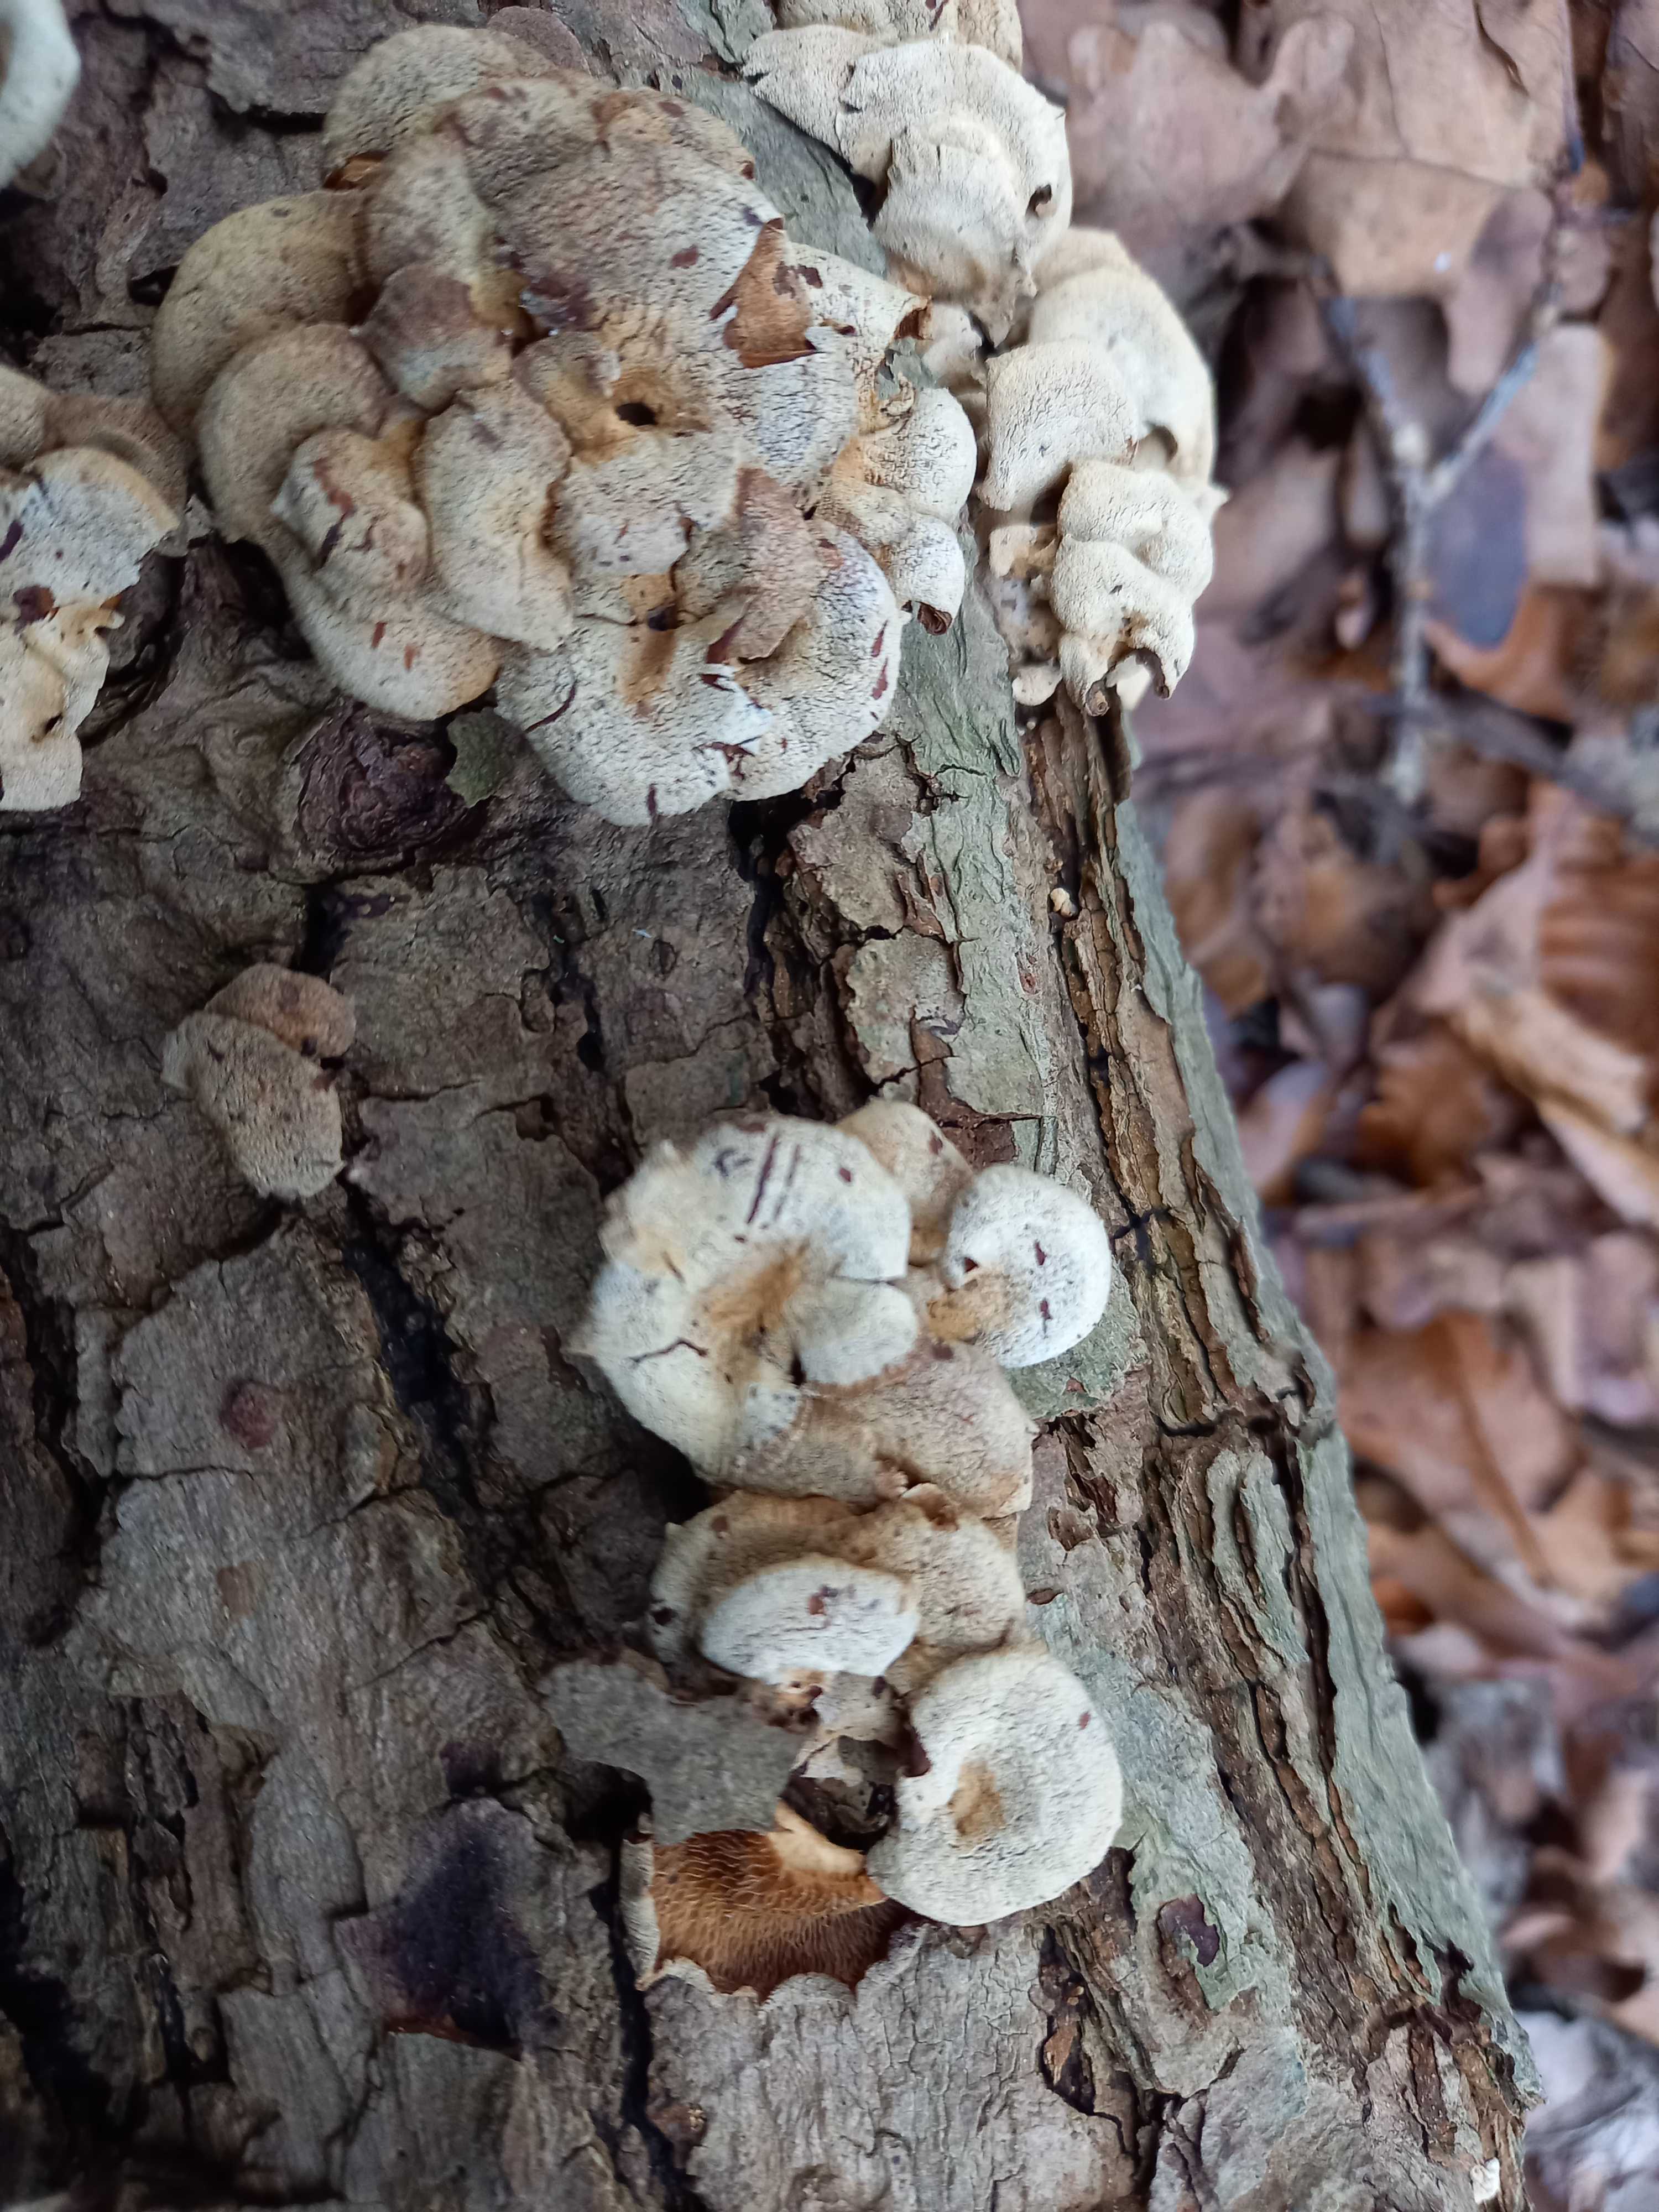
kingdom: Fungi
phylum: Basidiomycota
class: Agaricomycetes
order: Agaricales
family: Mycenaceae
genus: Panellus
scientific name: Panellus stipticus
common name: kliddet epaulethat
